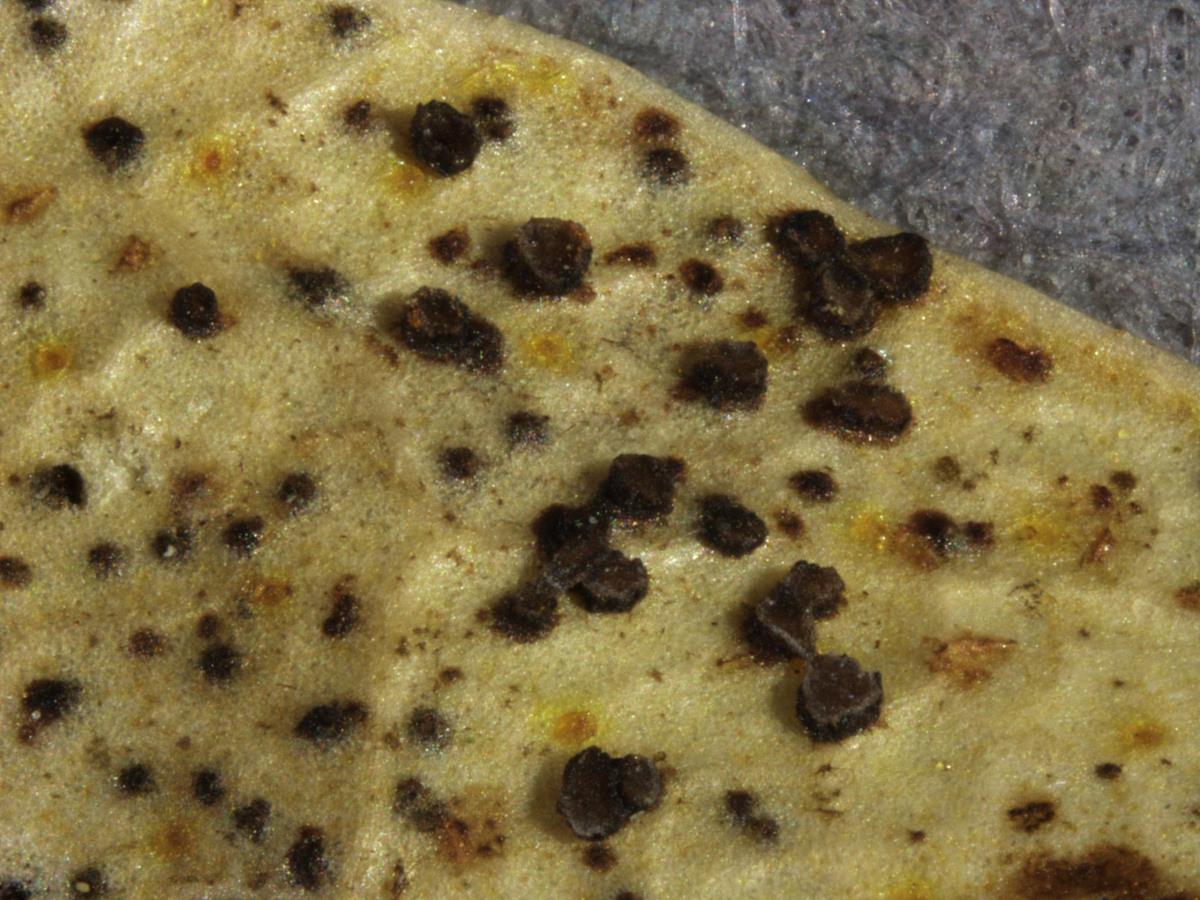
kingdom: Fungi
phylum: Ascomycota
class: Leotiomycetes
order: Helotiales
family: Pezizellaceae
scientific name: Pezizellaceae
